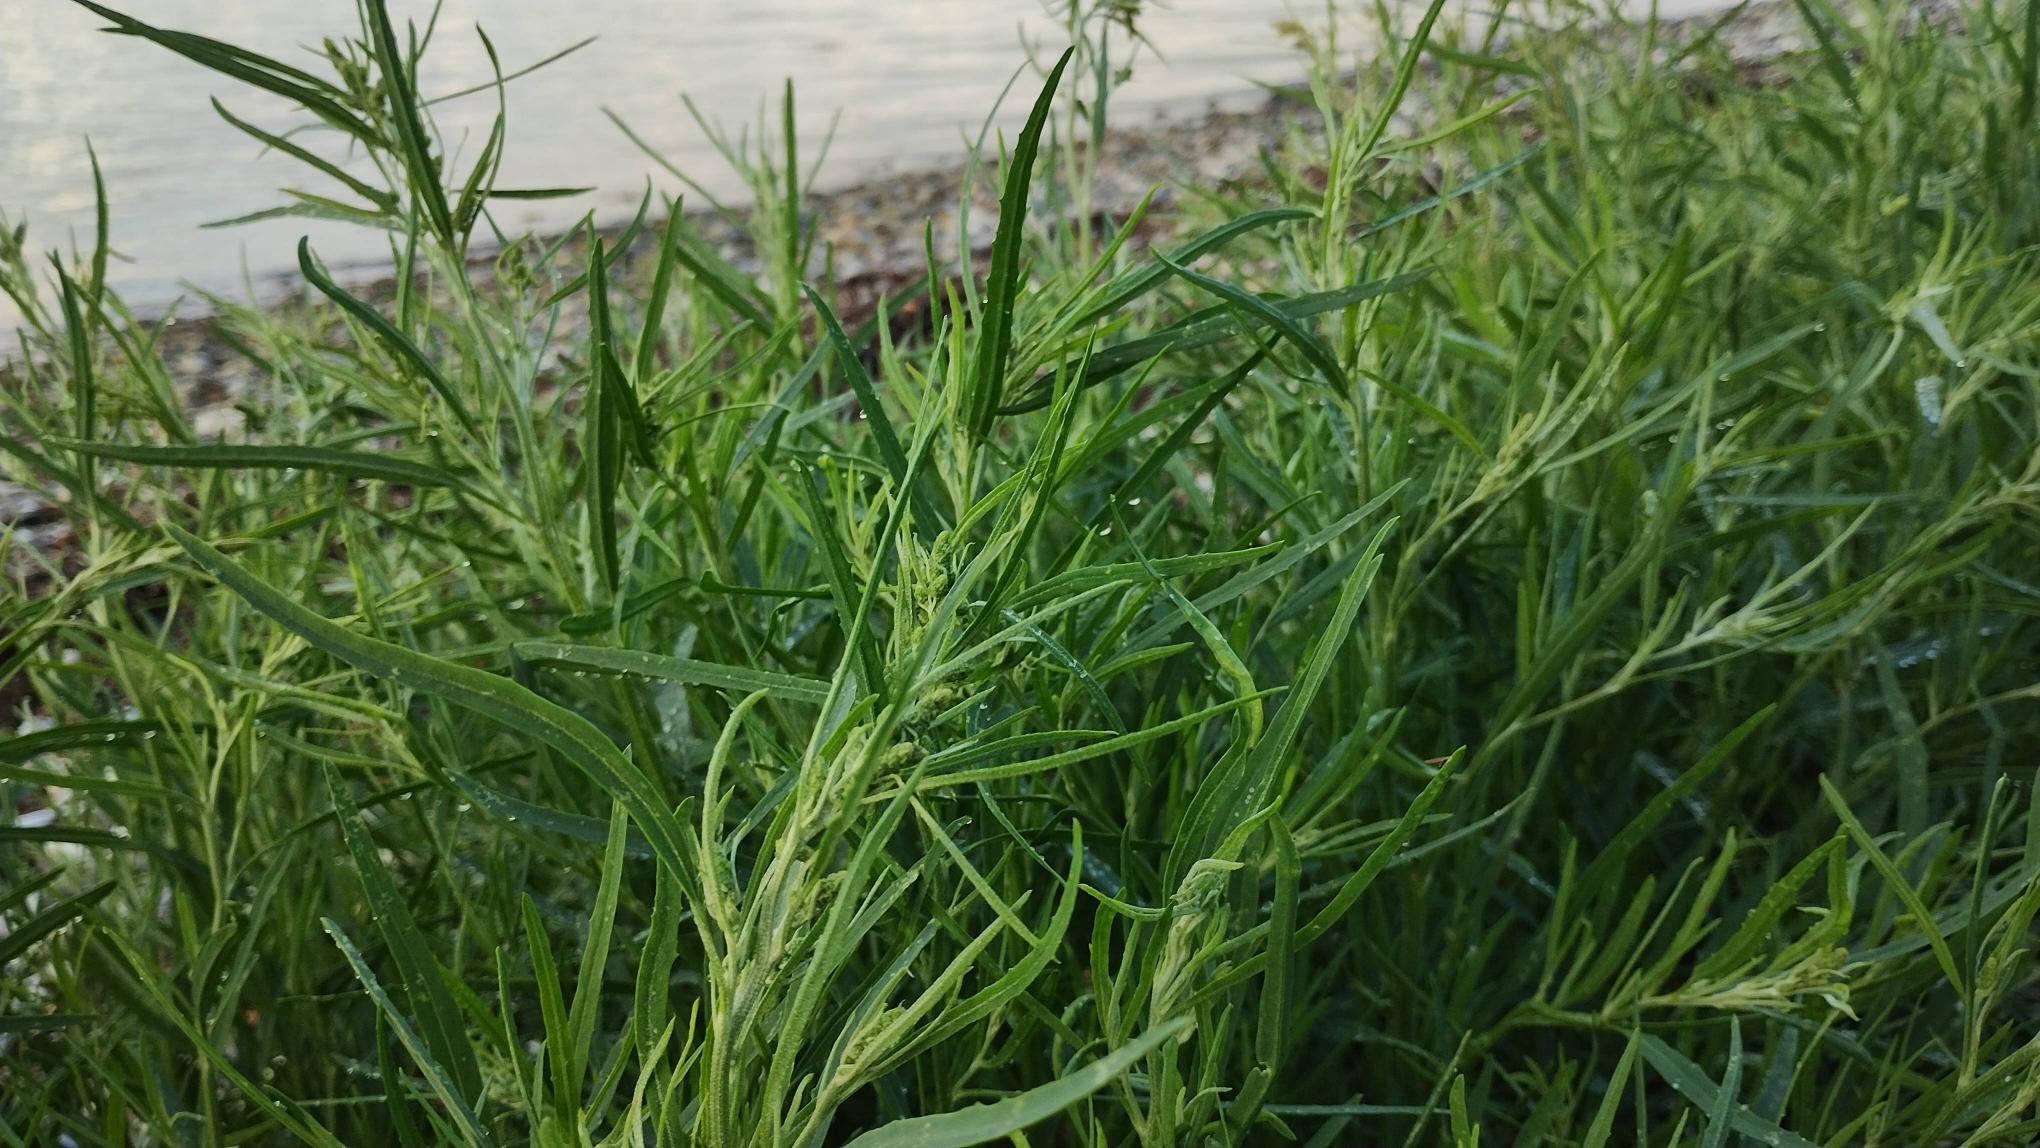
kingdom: Plantae
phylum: Tracheophyta
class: Magnoliopsida
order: Caryophyllales
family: Amaranthaceae
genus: Atriplex
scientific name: Atriplex littoralis
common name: Strand-mælde
